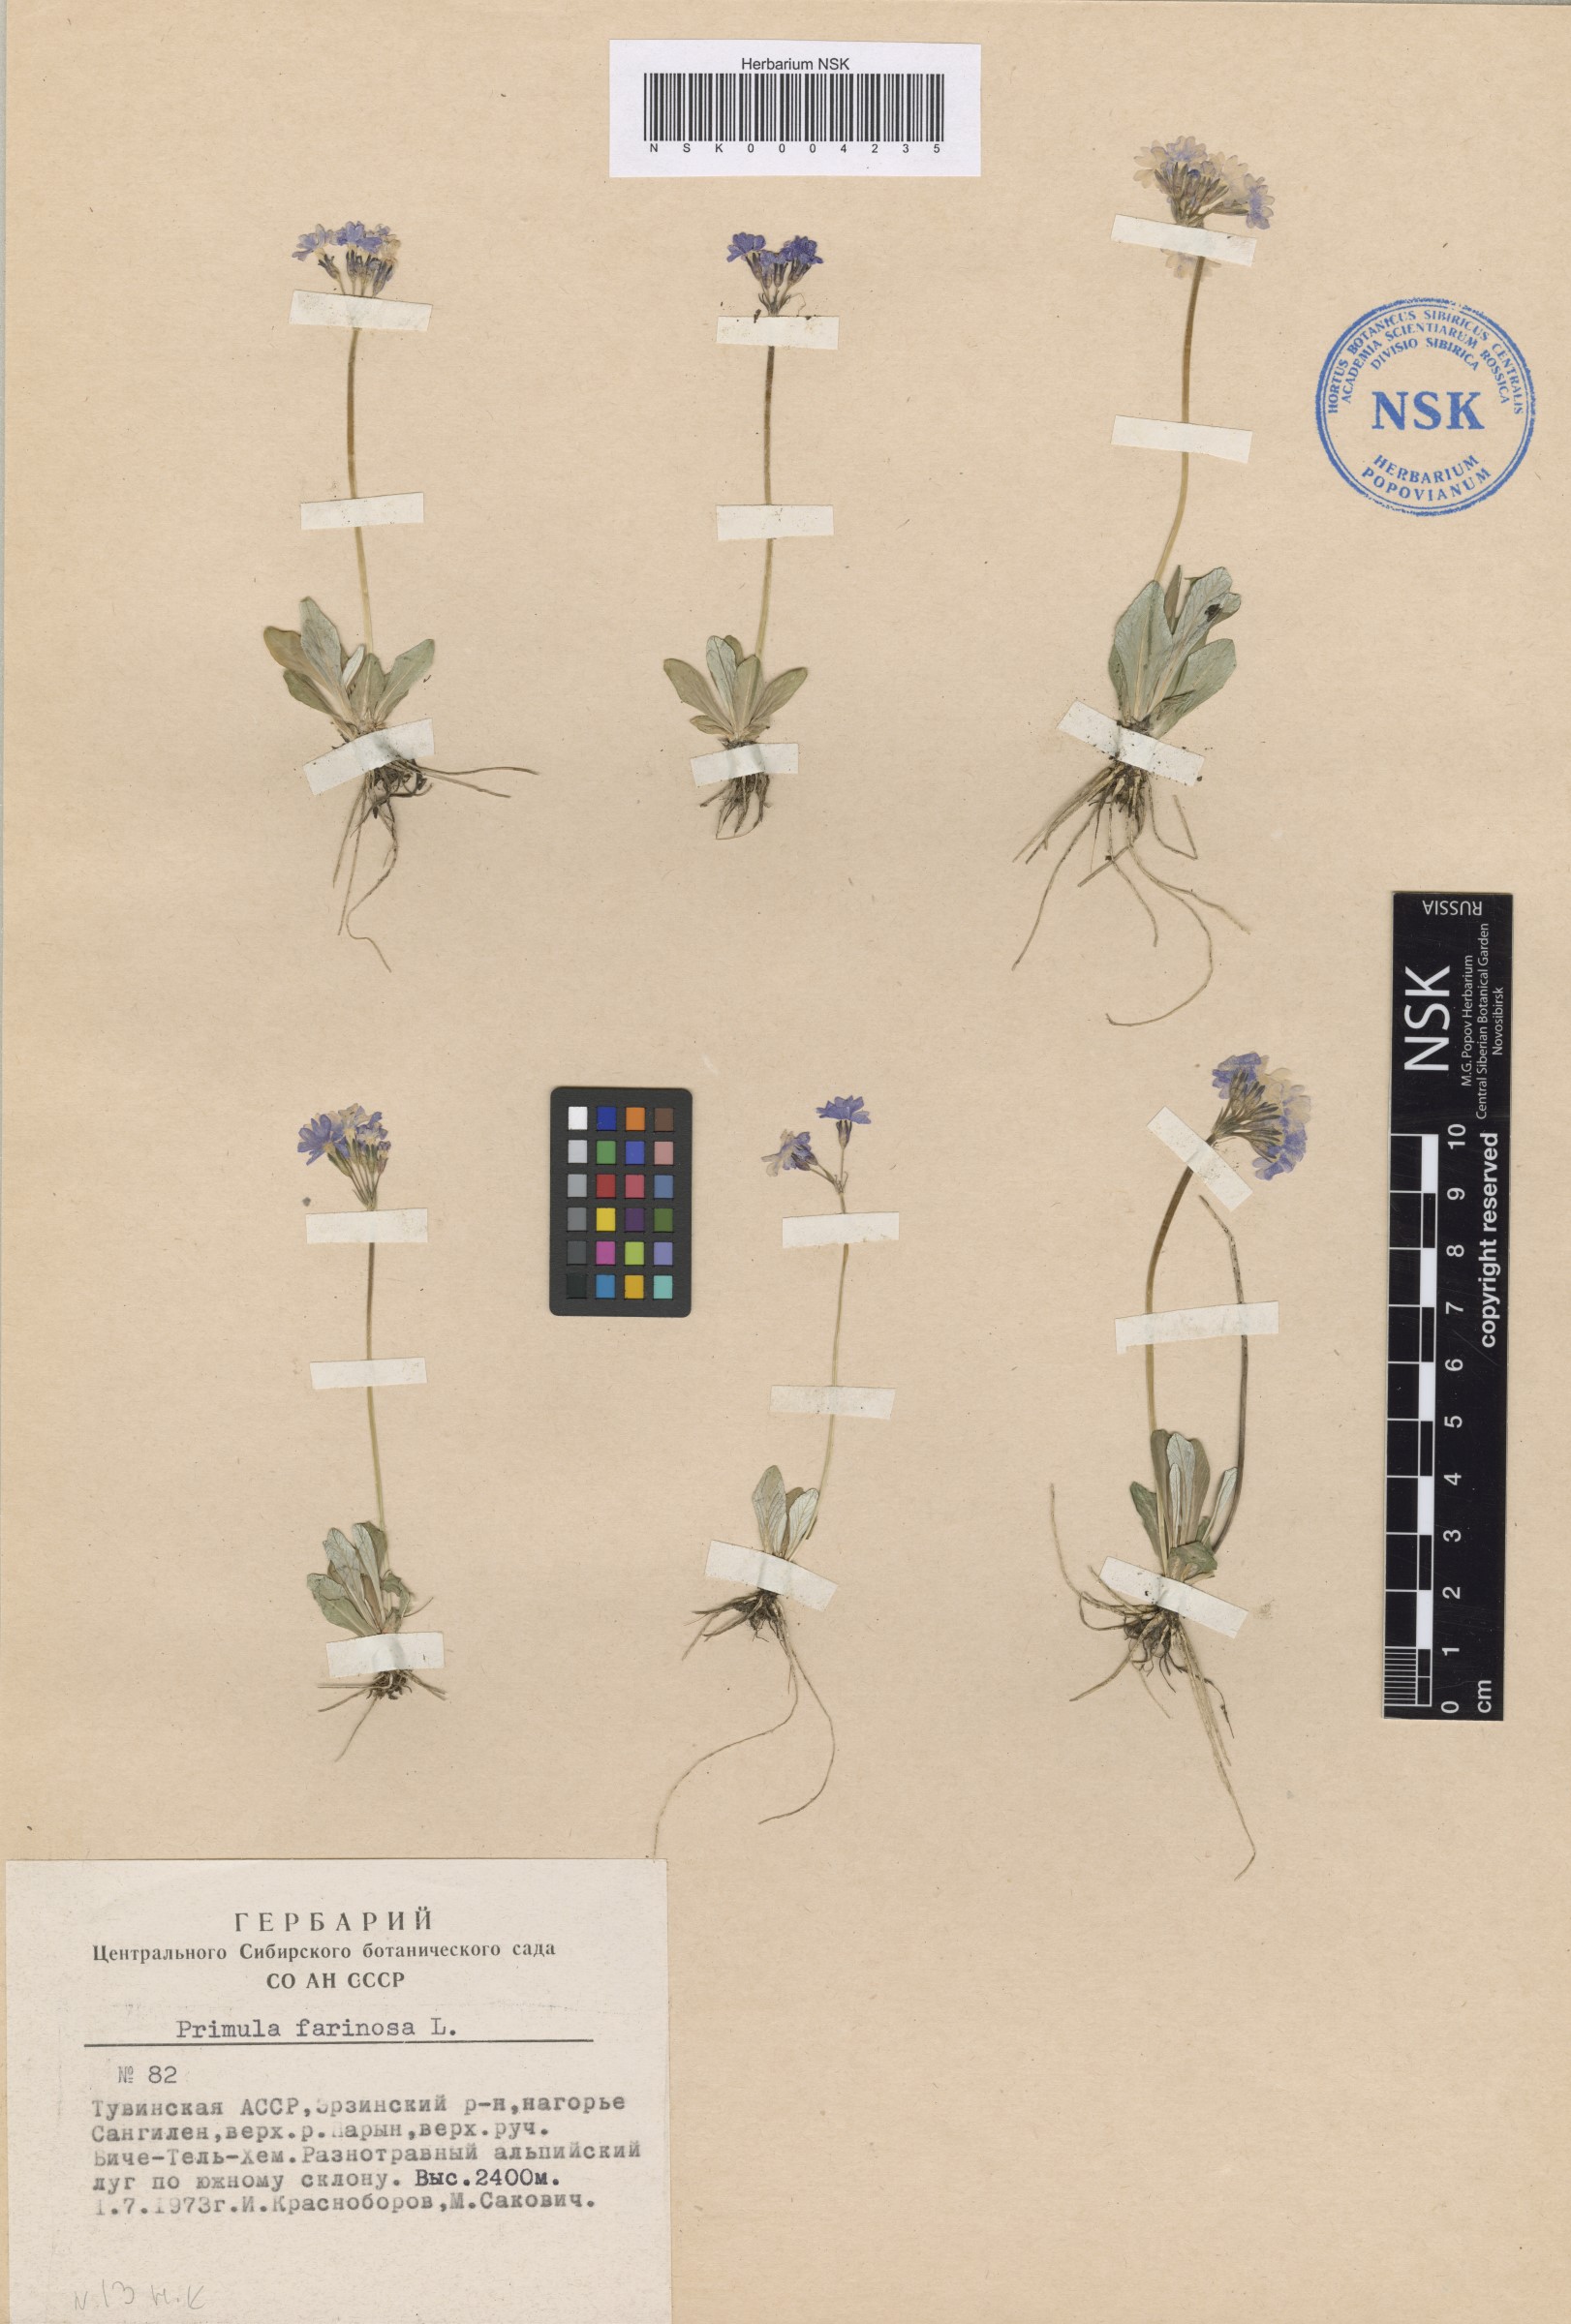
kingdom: Plantae
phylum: Tracheophyta
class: Magnoliopsida
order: Ericales
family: Primulaceae
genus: Primula
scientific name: Primula farinosa
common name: Bird's-eye primrose
